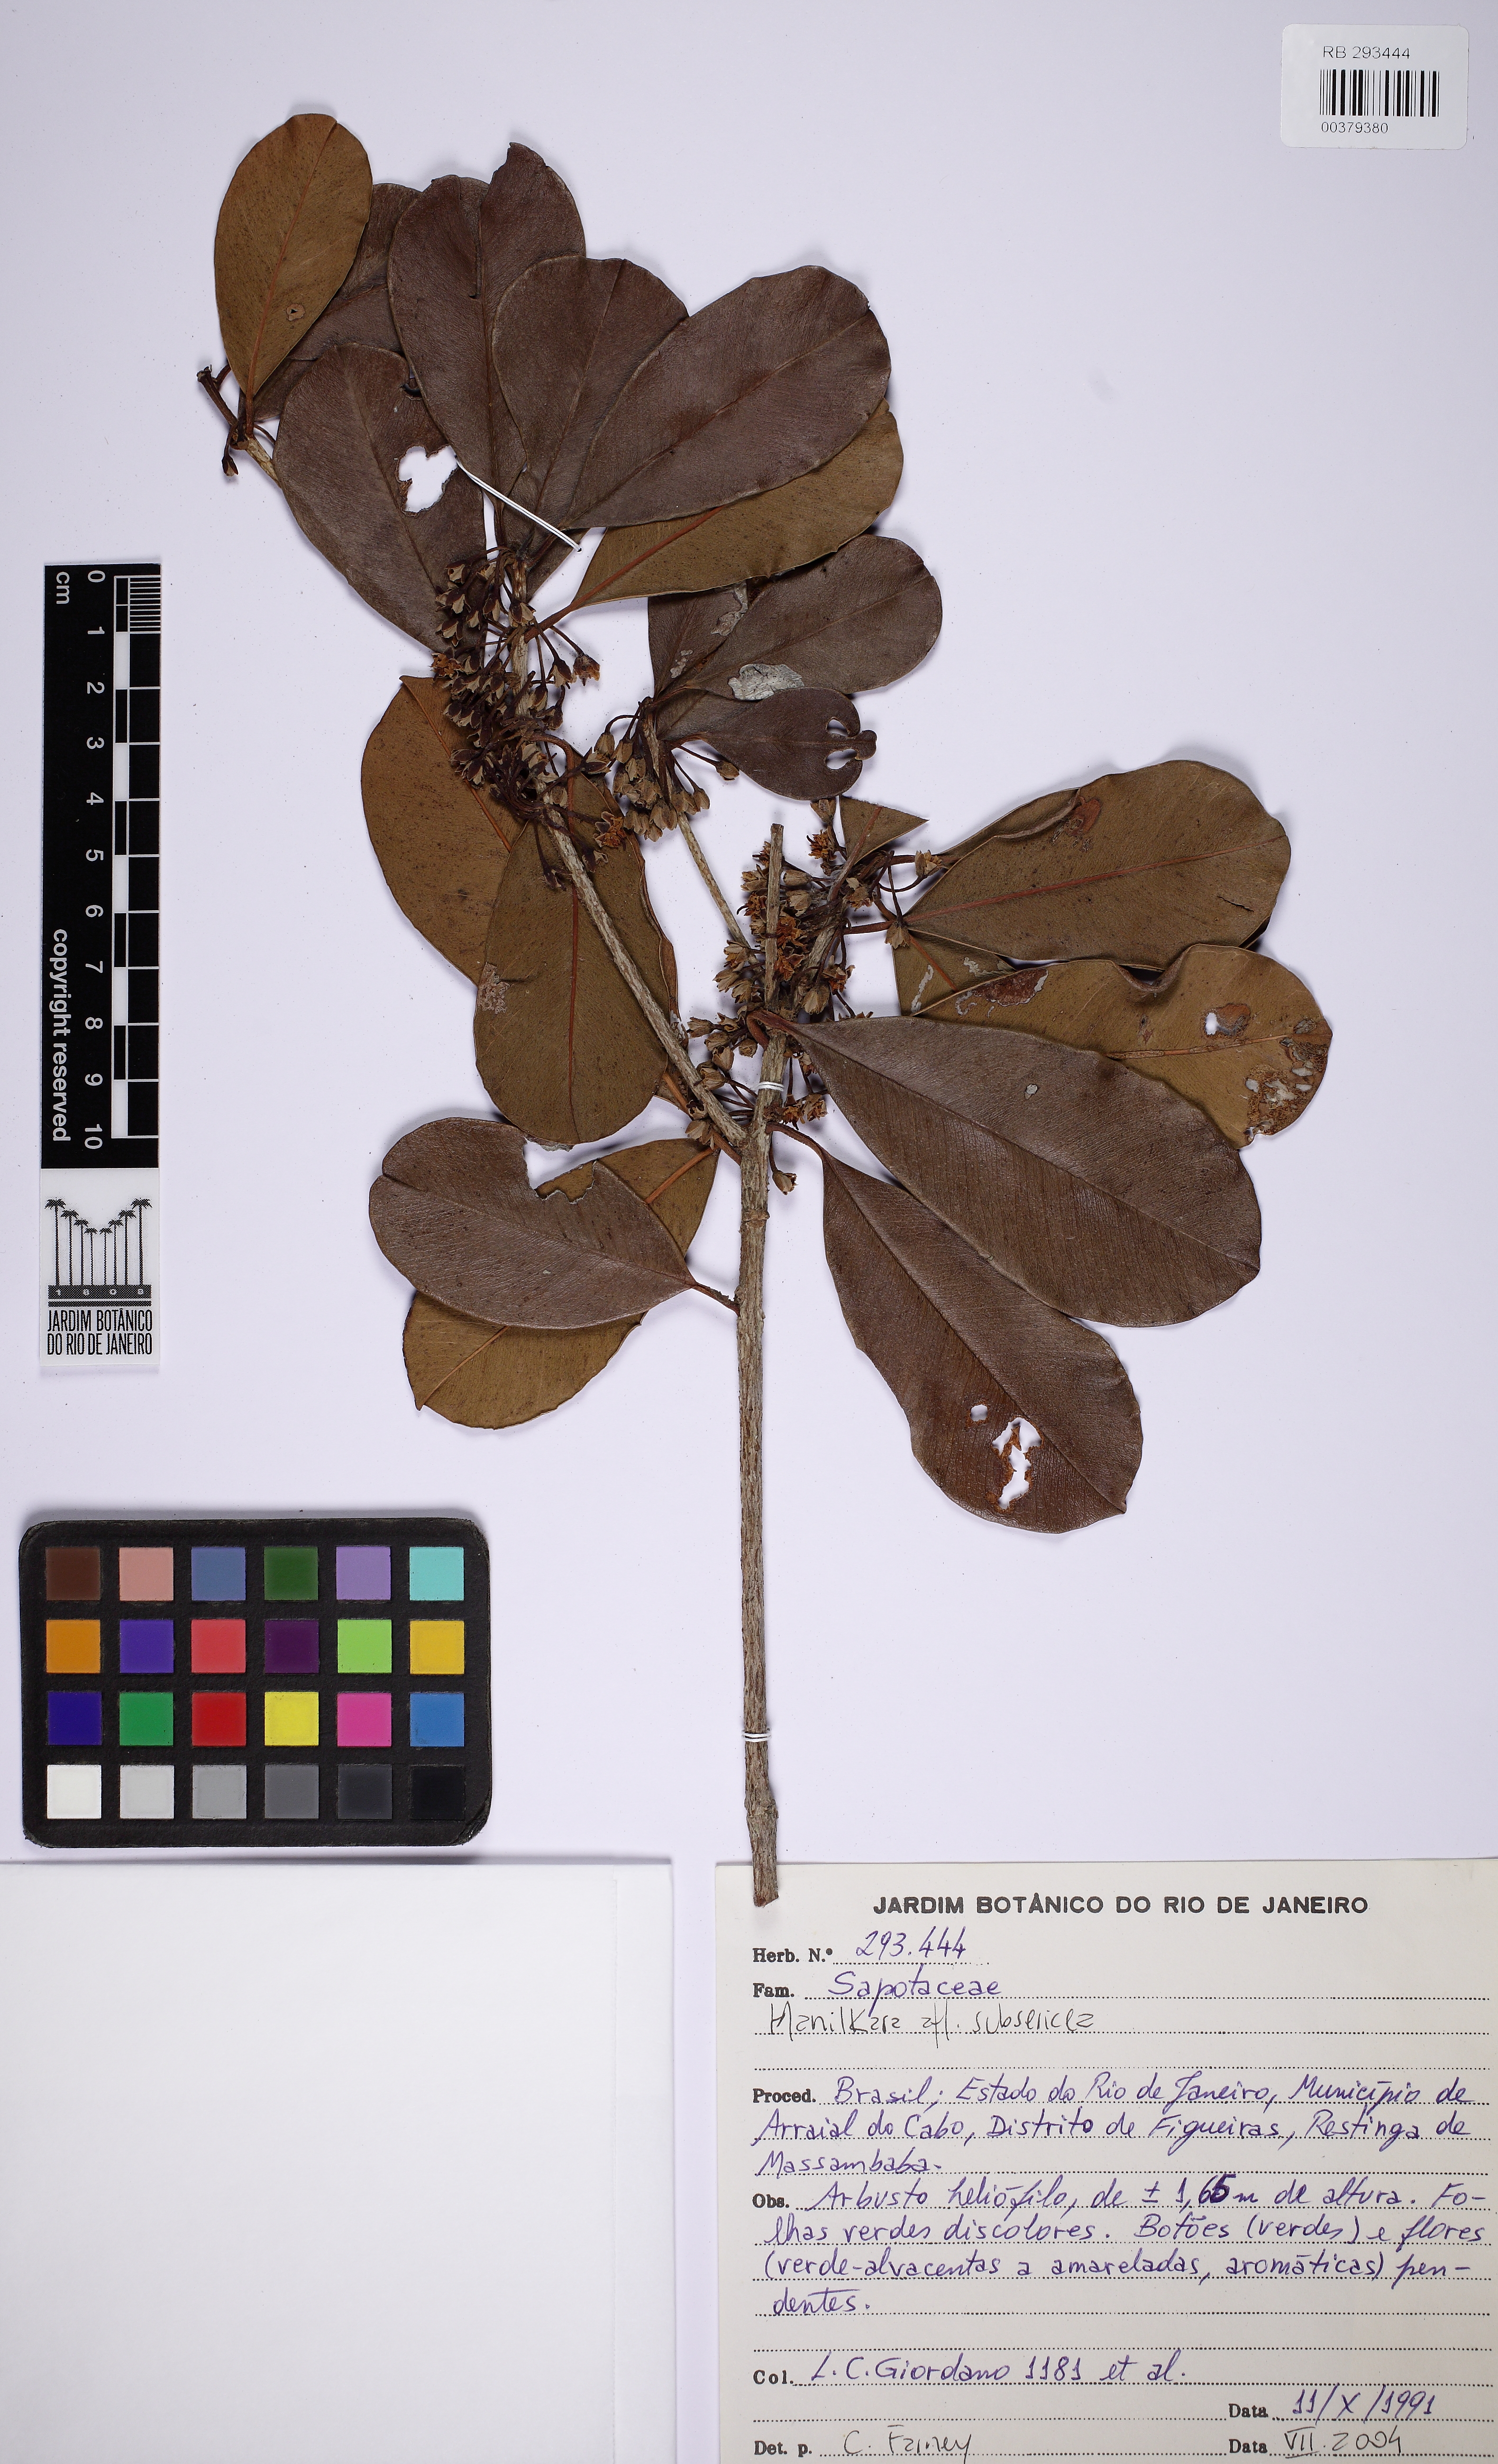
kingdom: Plantae
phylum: Tracheophyta
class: Magnoliopsida
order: Ericales
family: Sapotaceae
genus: Manilkara
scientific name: Manilkara subsericea
